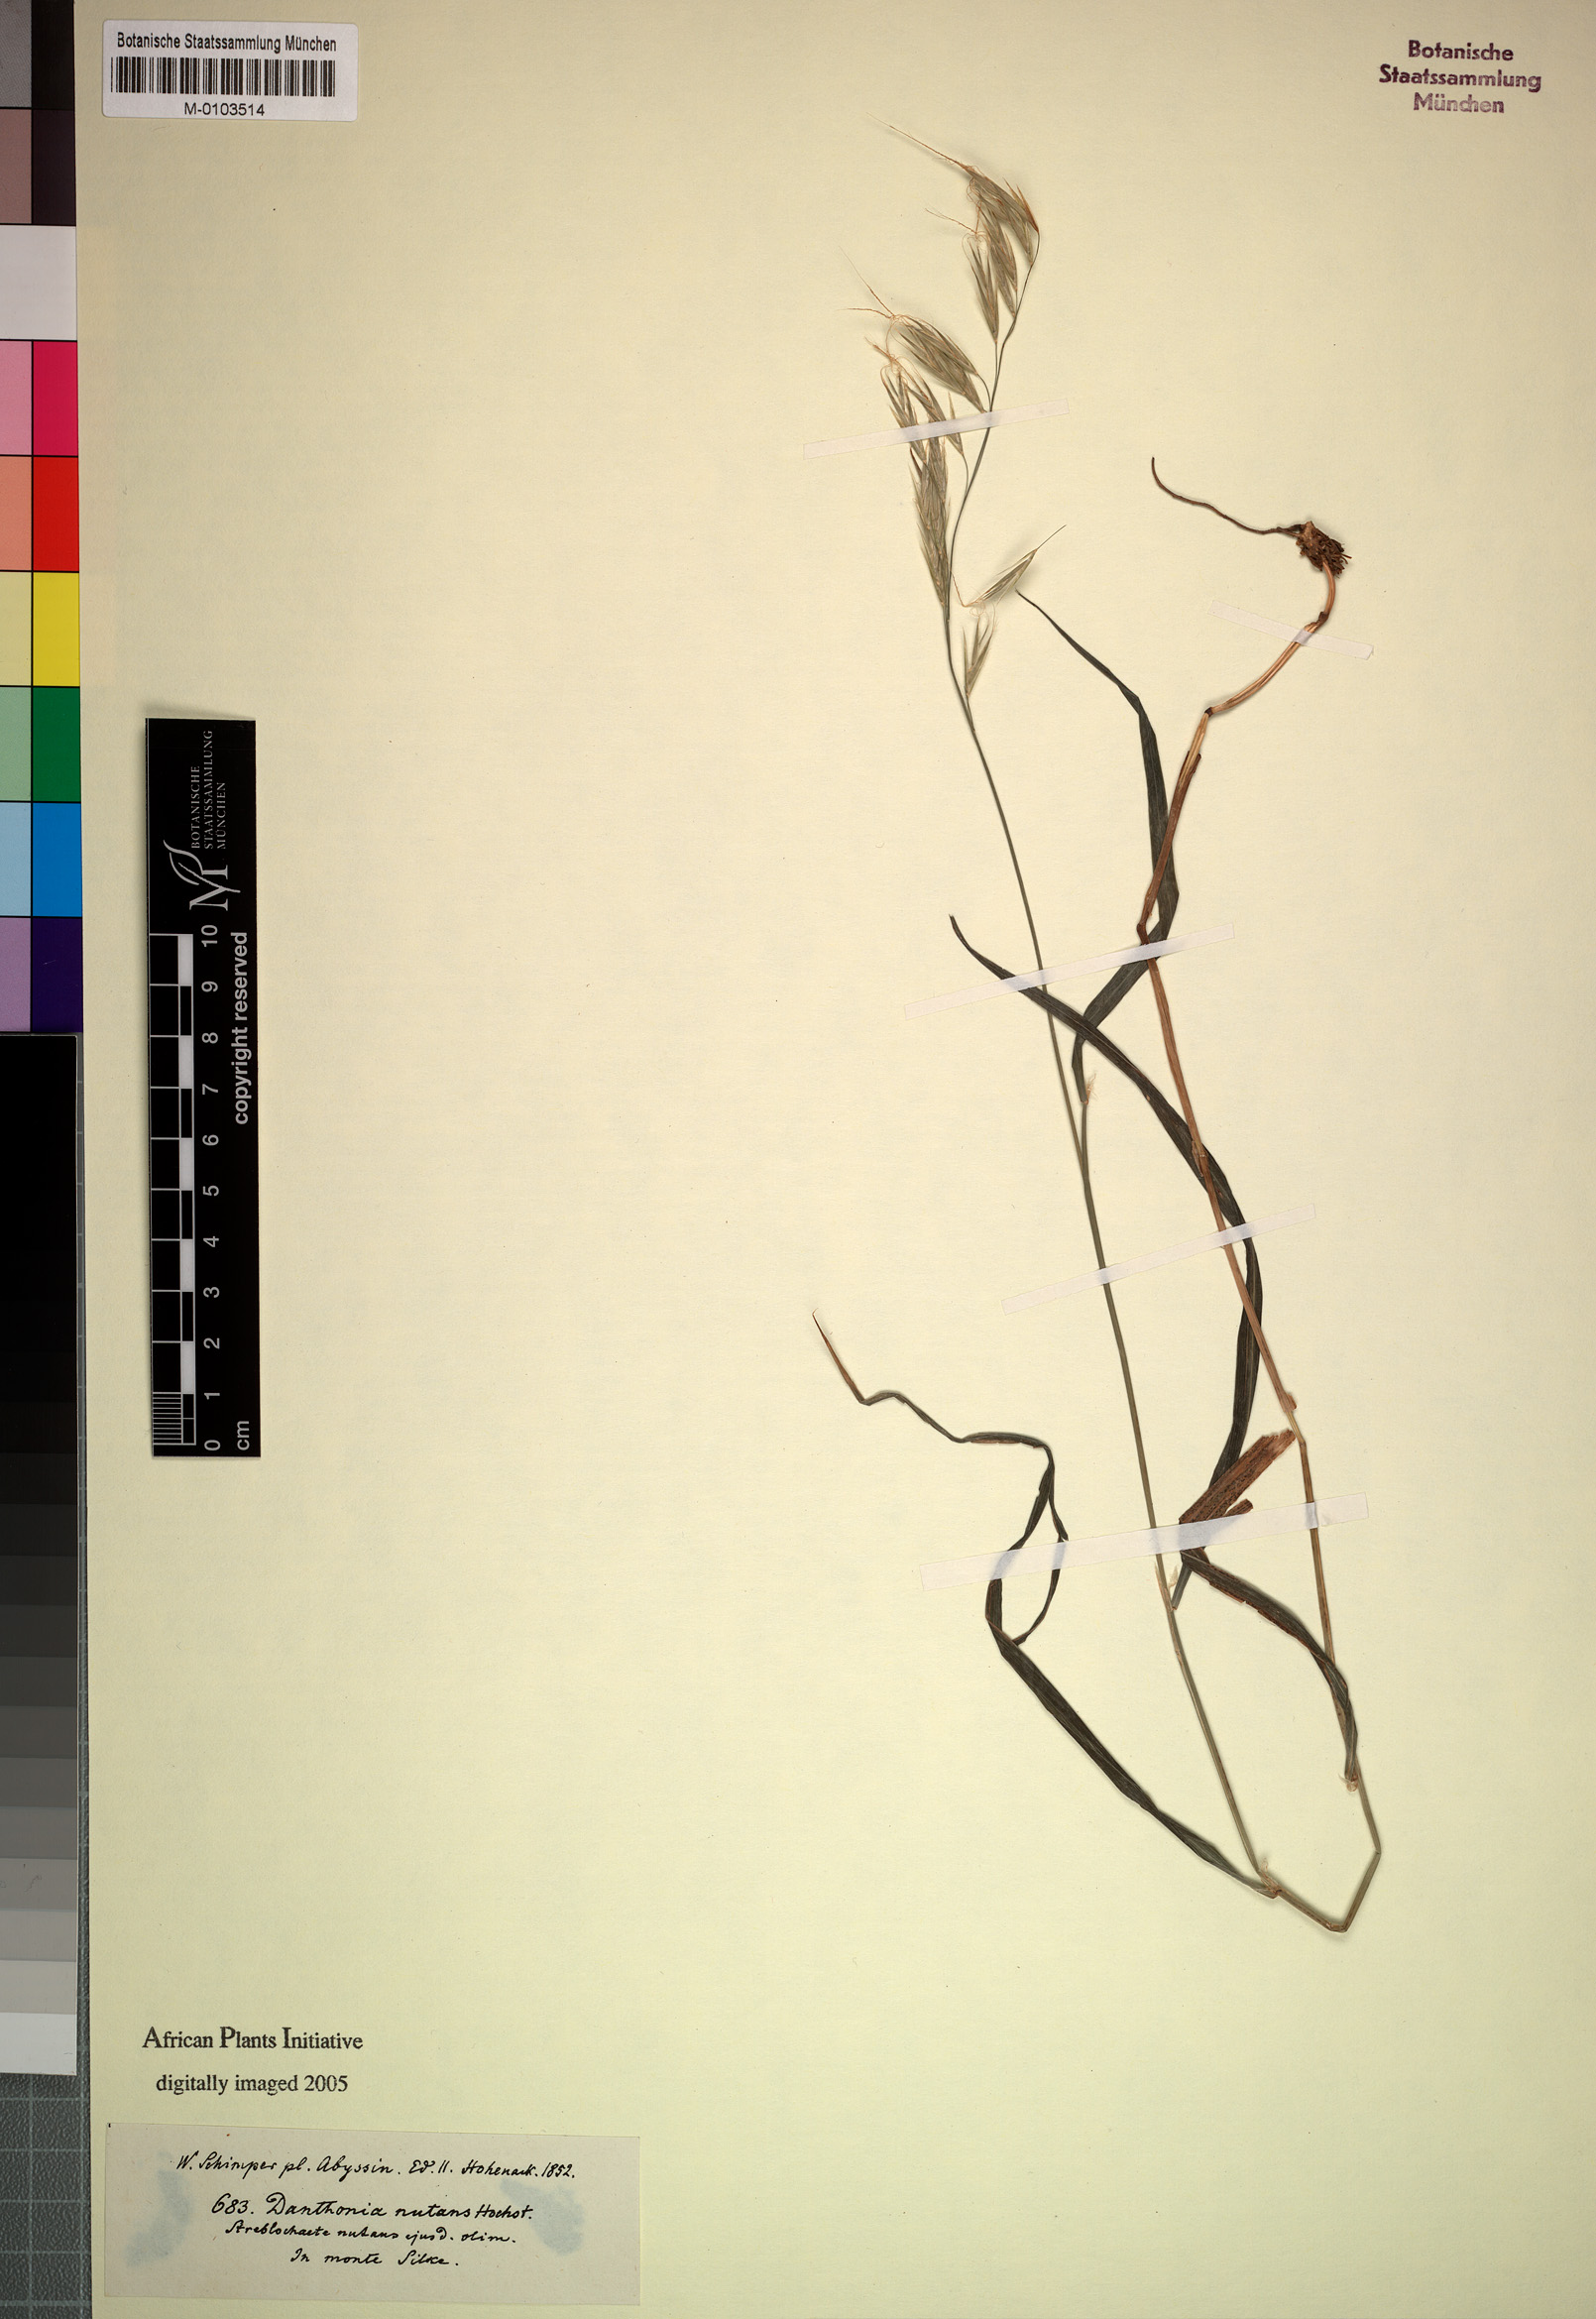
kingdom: Plantae
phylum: Tracheophyta
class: Liliopsida
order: Poales
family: Poaceae
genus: Koordersiochloa
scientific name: Koordersiochloa longiarista
